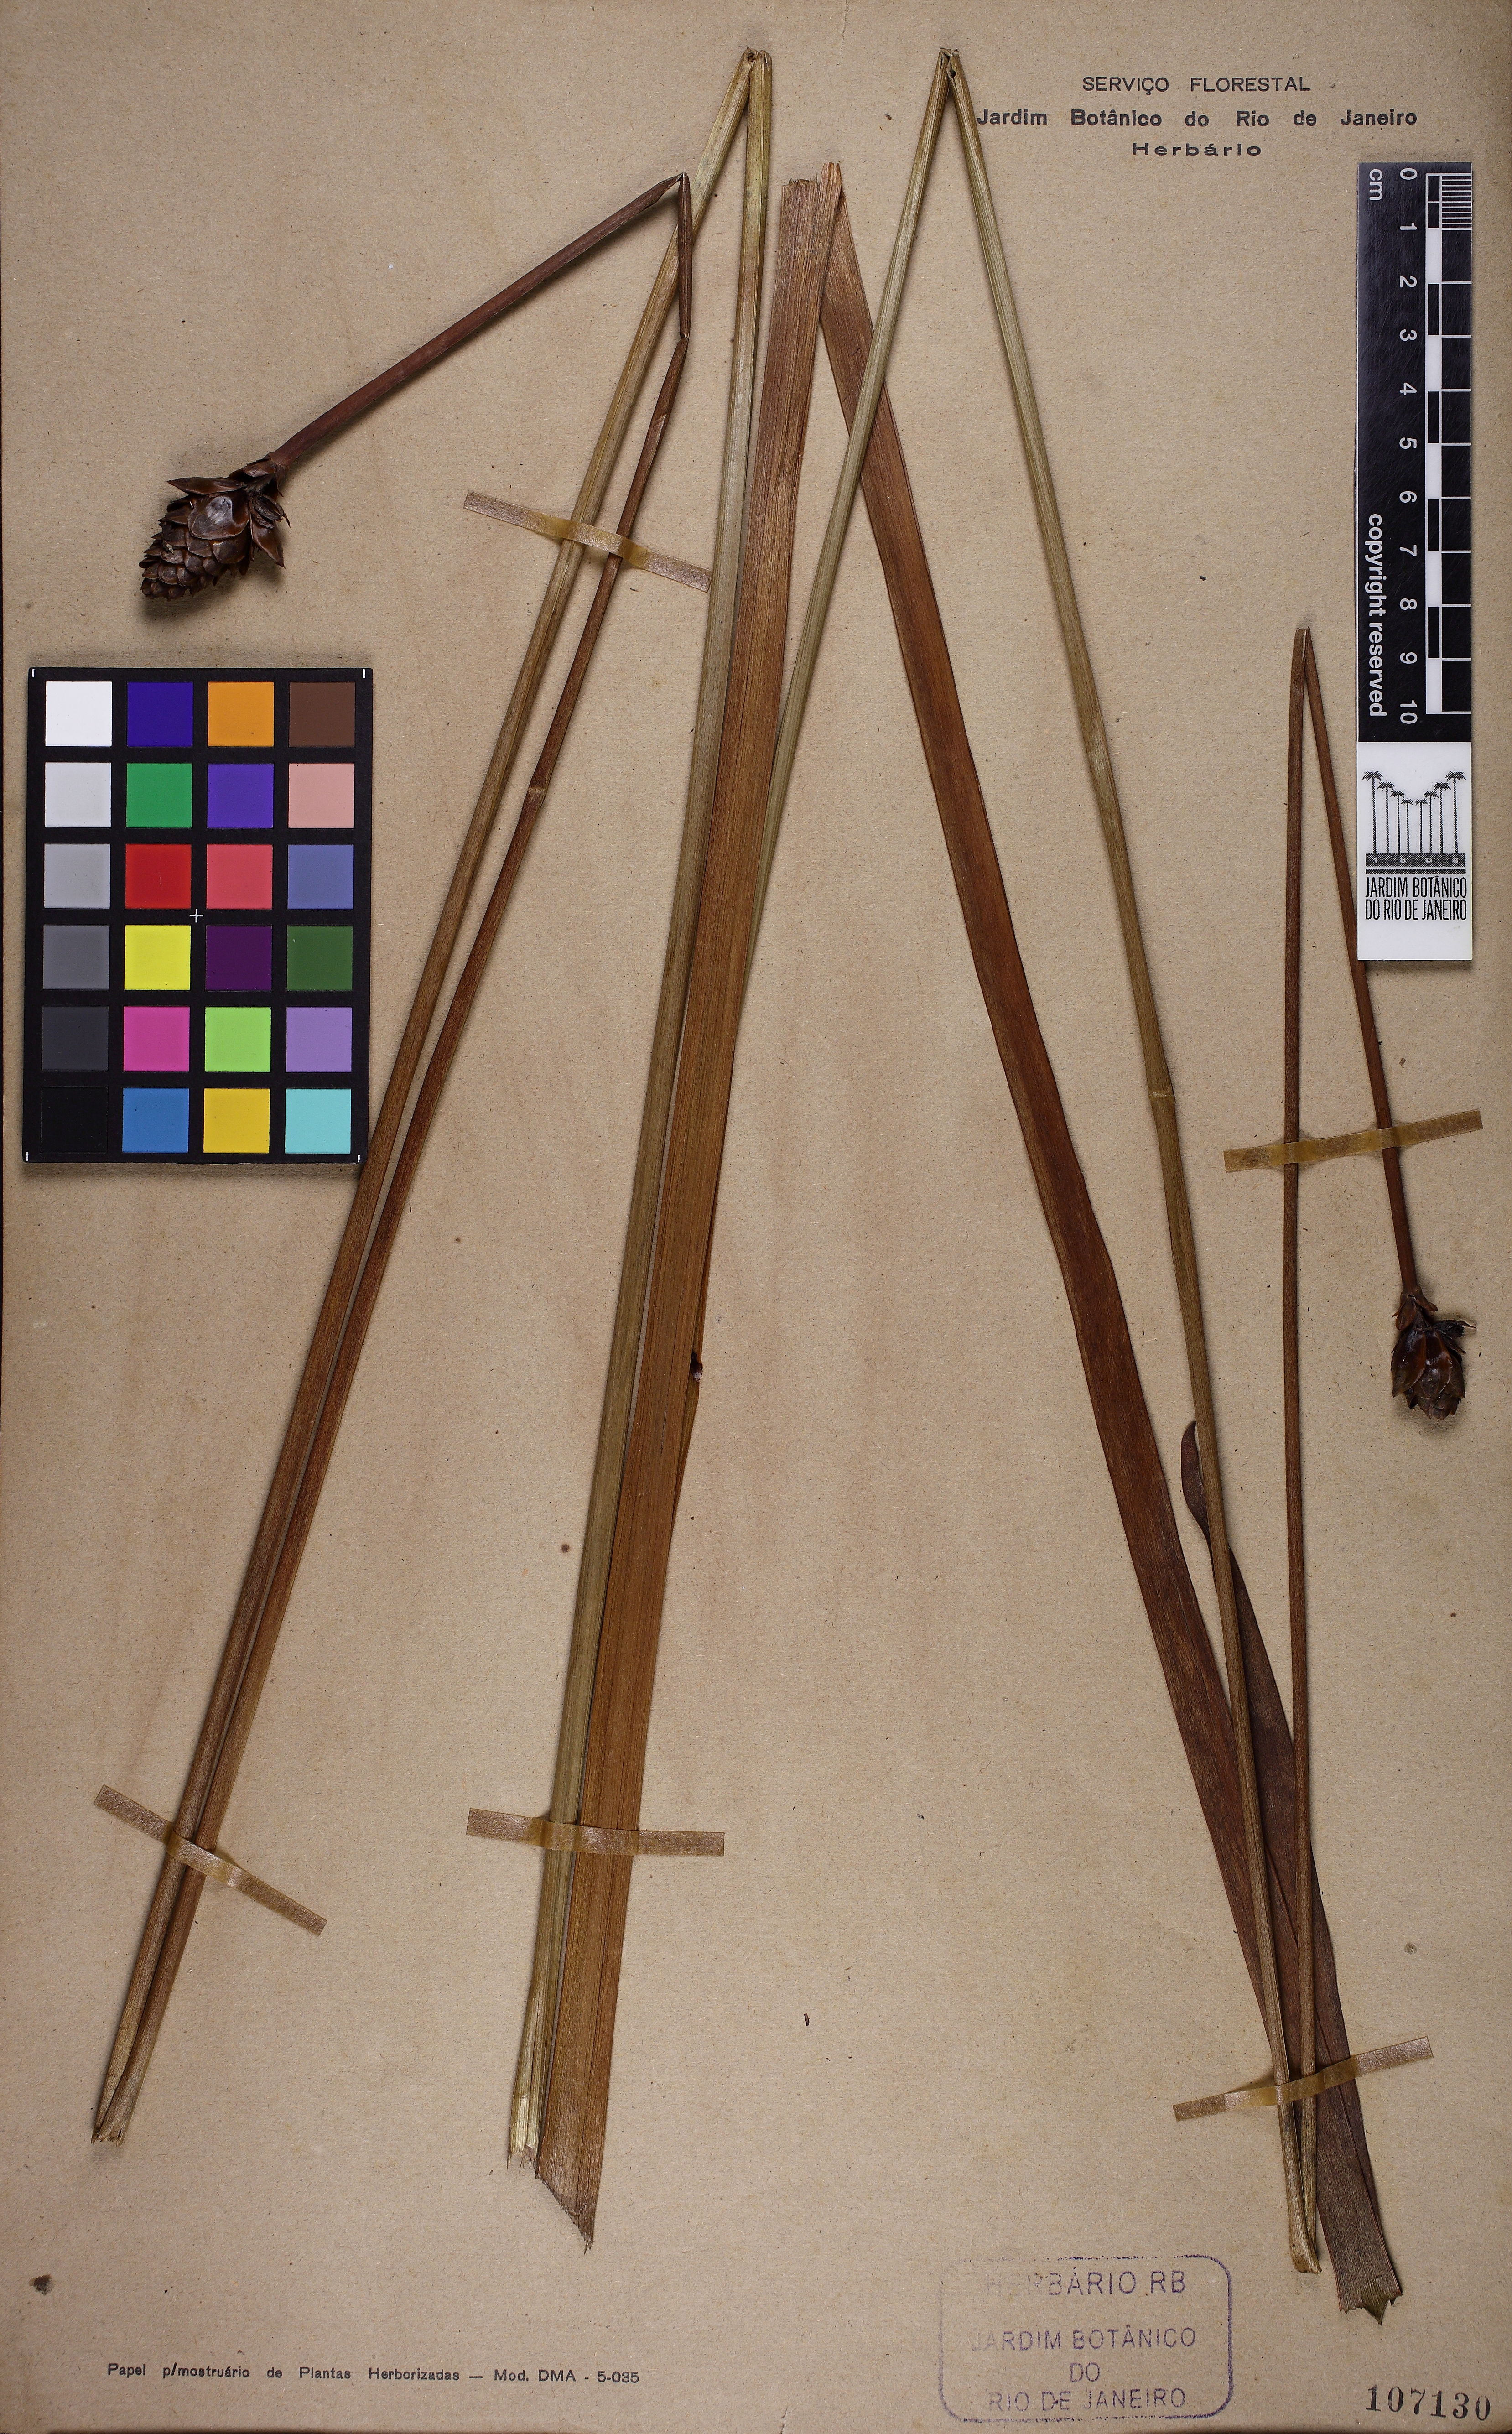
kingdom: Plantae
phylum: Tracheophyta
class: Liliopsida
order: Poales
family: Xyridaceae
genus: Xyris
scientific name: Xyris jupicai
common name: Richard's yelloweyed grass
